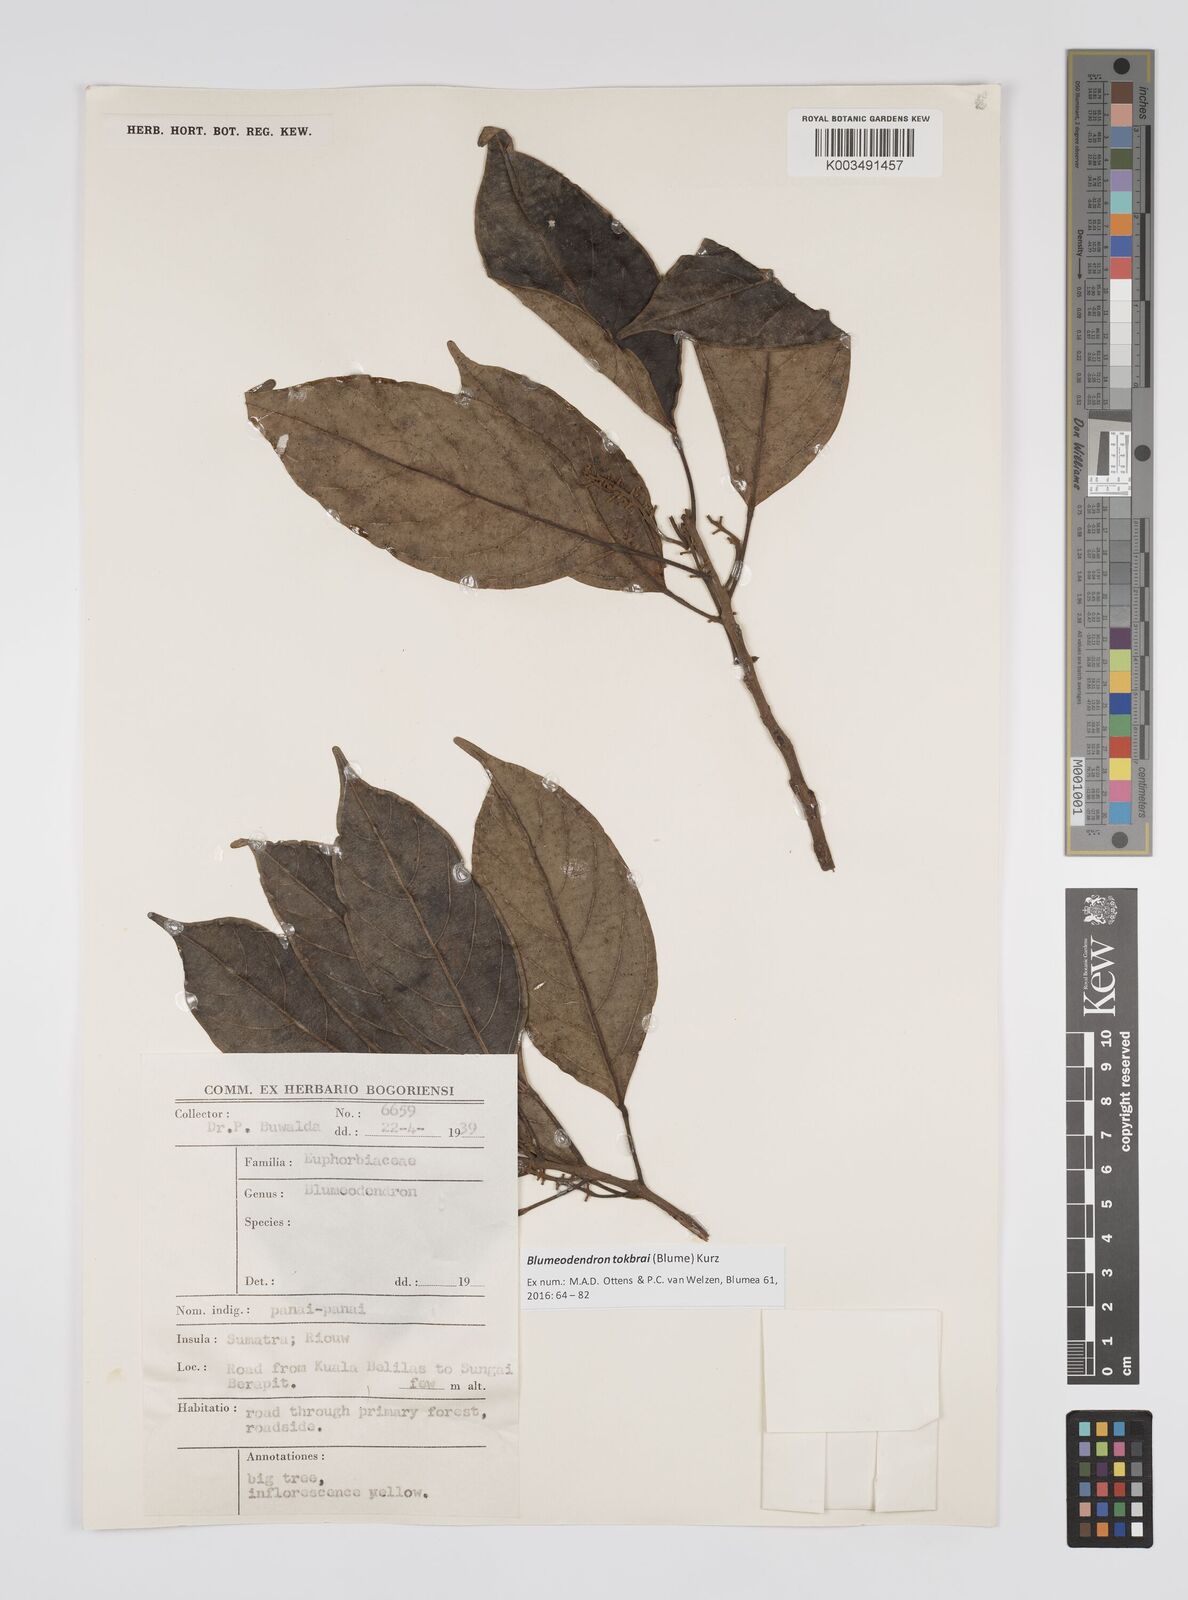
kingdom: Plantae
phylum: Tracheophyta
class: Magnoliopsida
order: Malpighiales
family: Euphorbiaceae
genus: Blumeodendron
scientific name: Blumeodendron tokbrai
